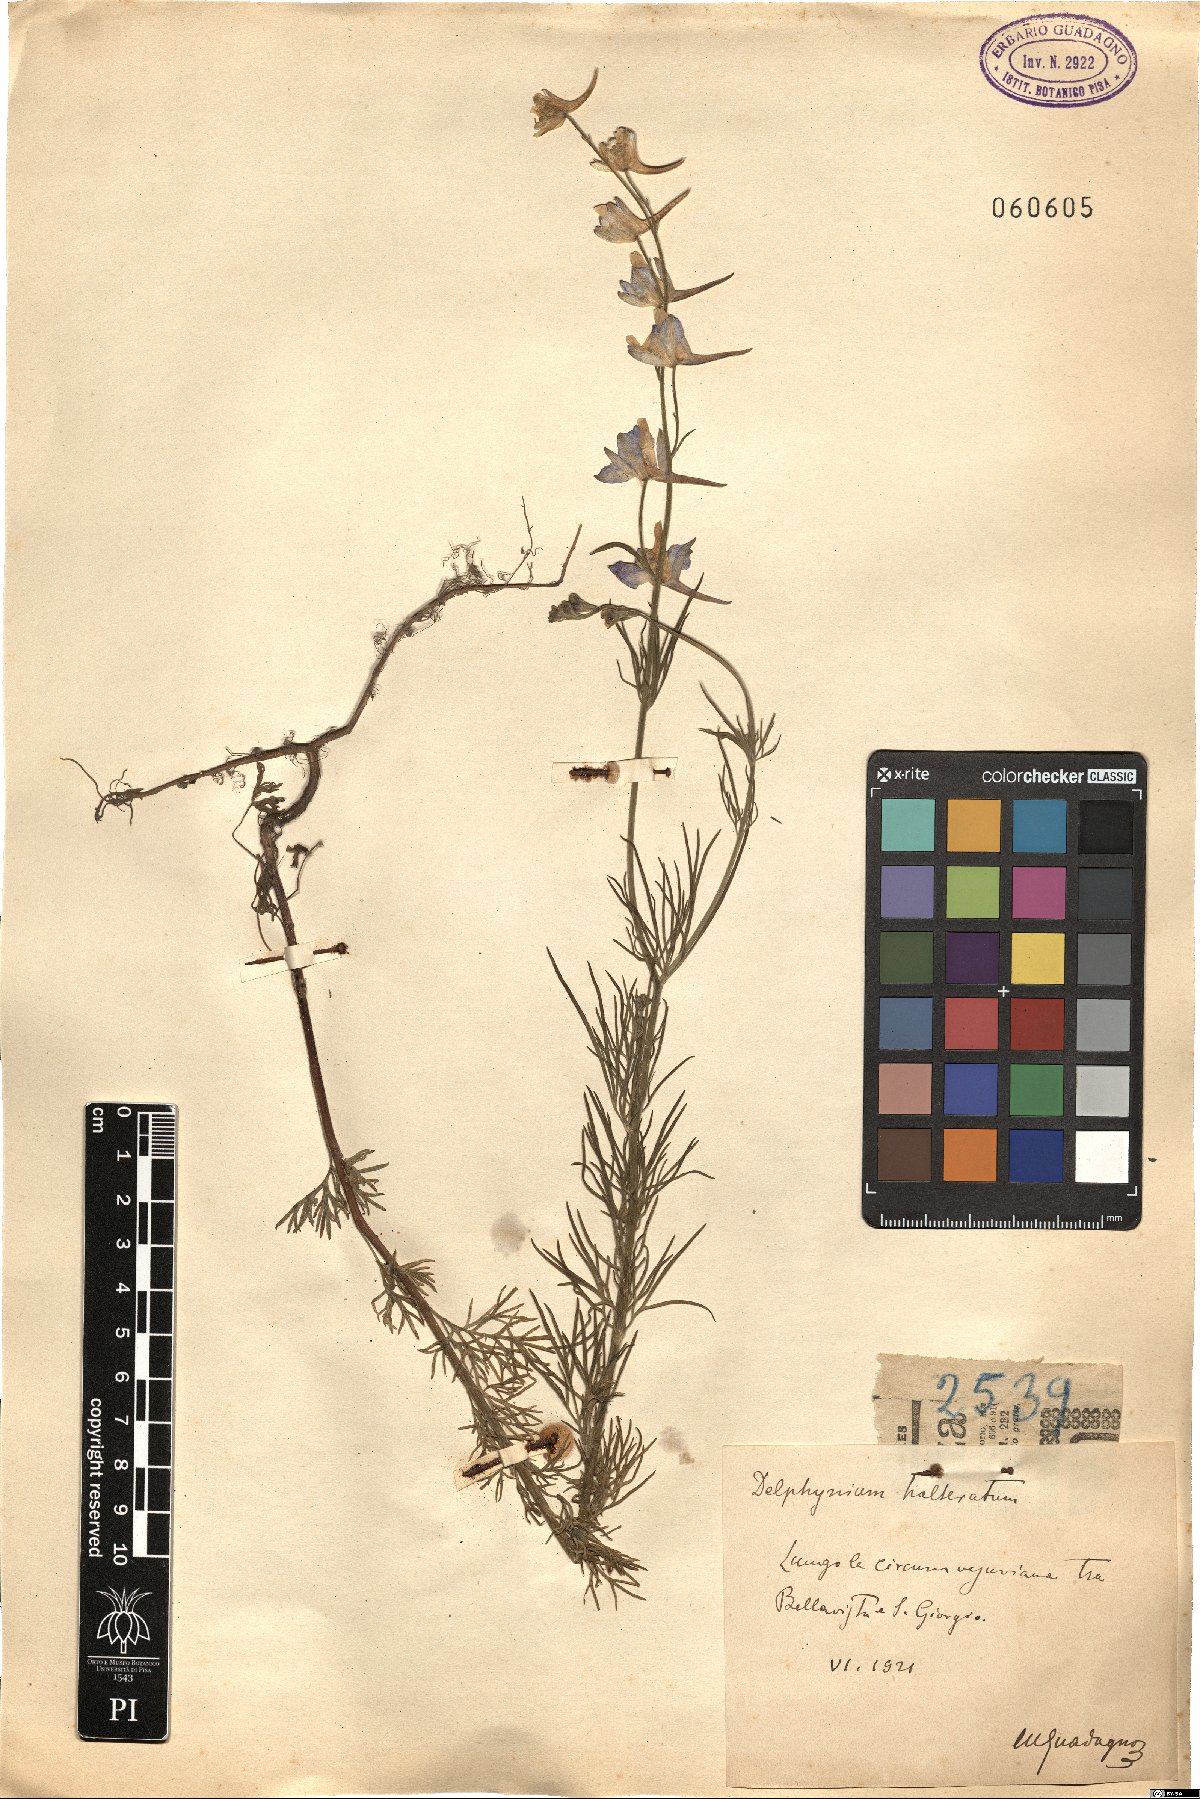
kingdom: Plantae
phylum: Tracheophyta
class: Magnoliopsida
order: Ranunculales
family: Ranunculaceae
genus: Delphinium
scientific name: Delphinium halteratum
